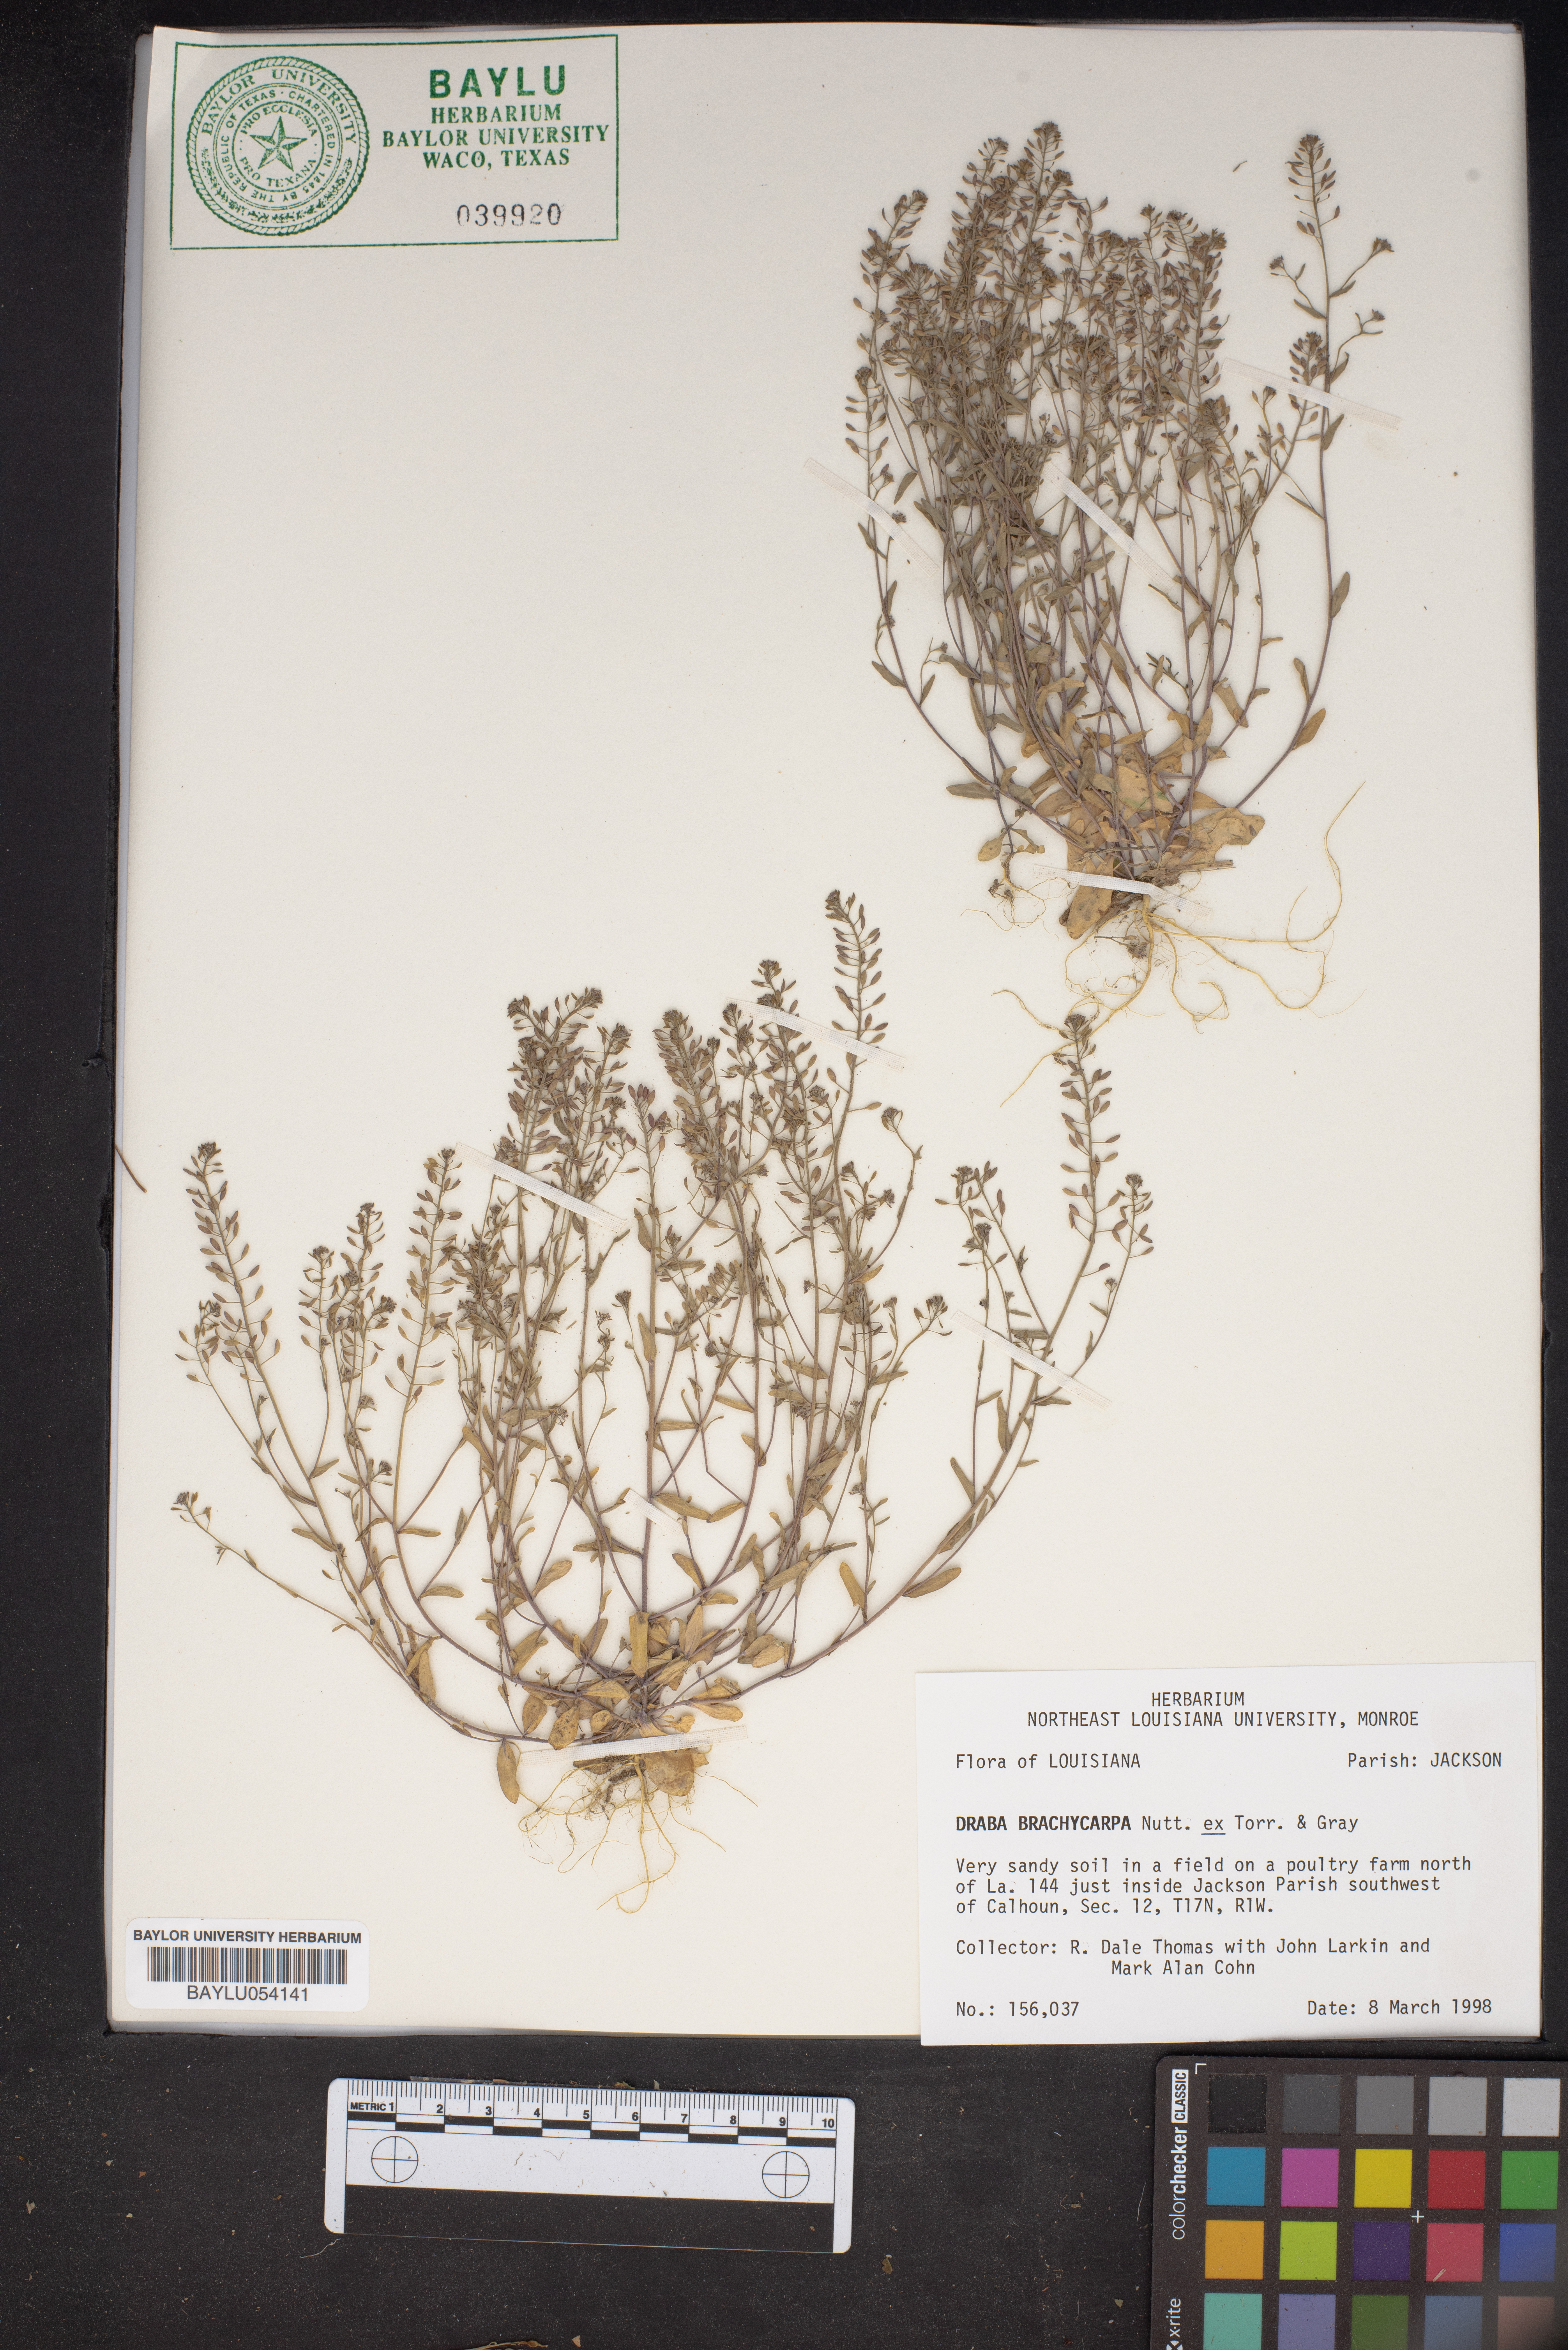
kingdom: Plantae
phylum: Tracheophyta
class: Magnoliopsida
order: Brassicales
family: Brassicaceae
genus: Abdra
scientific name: Abdra brachycarpa
